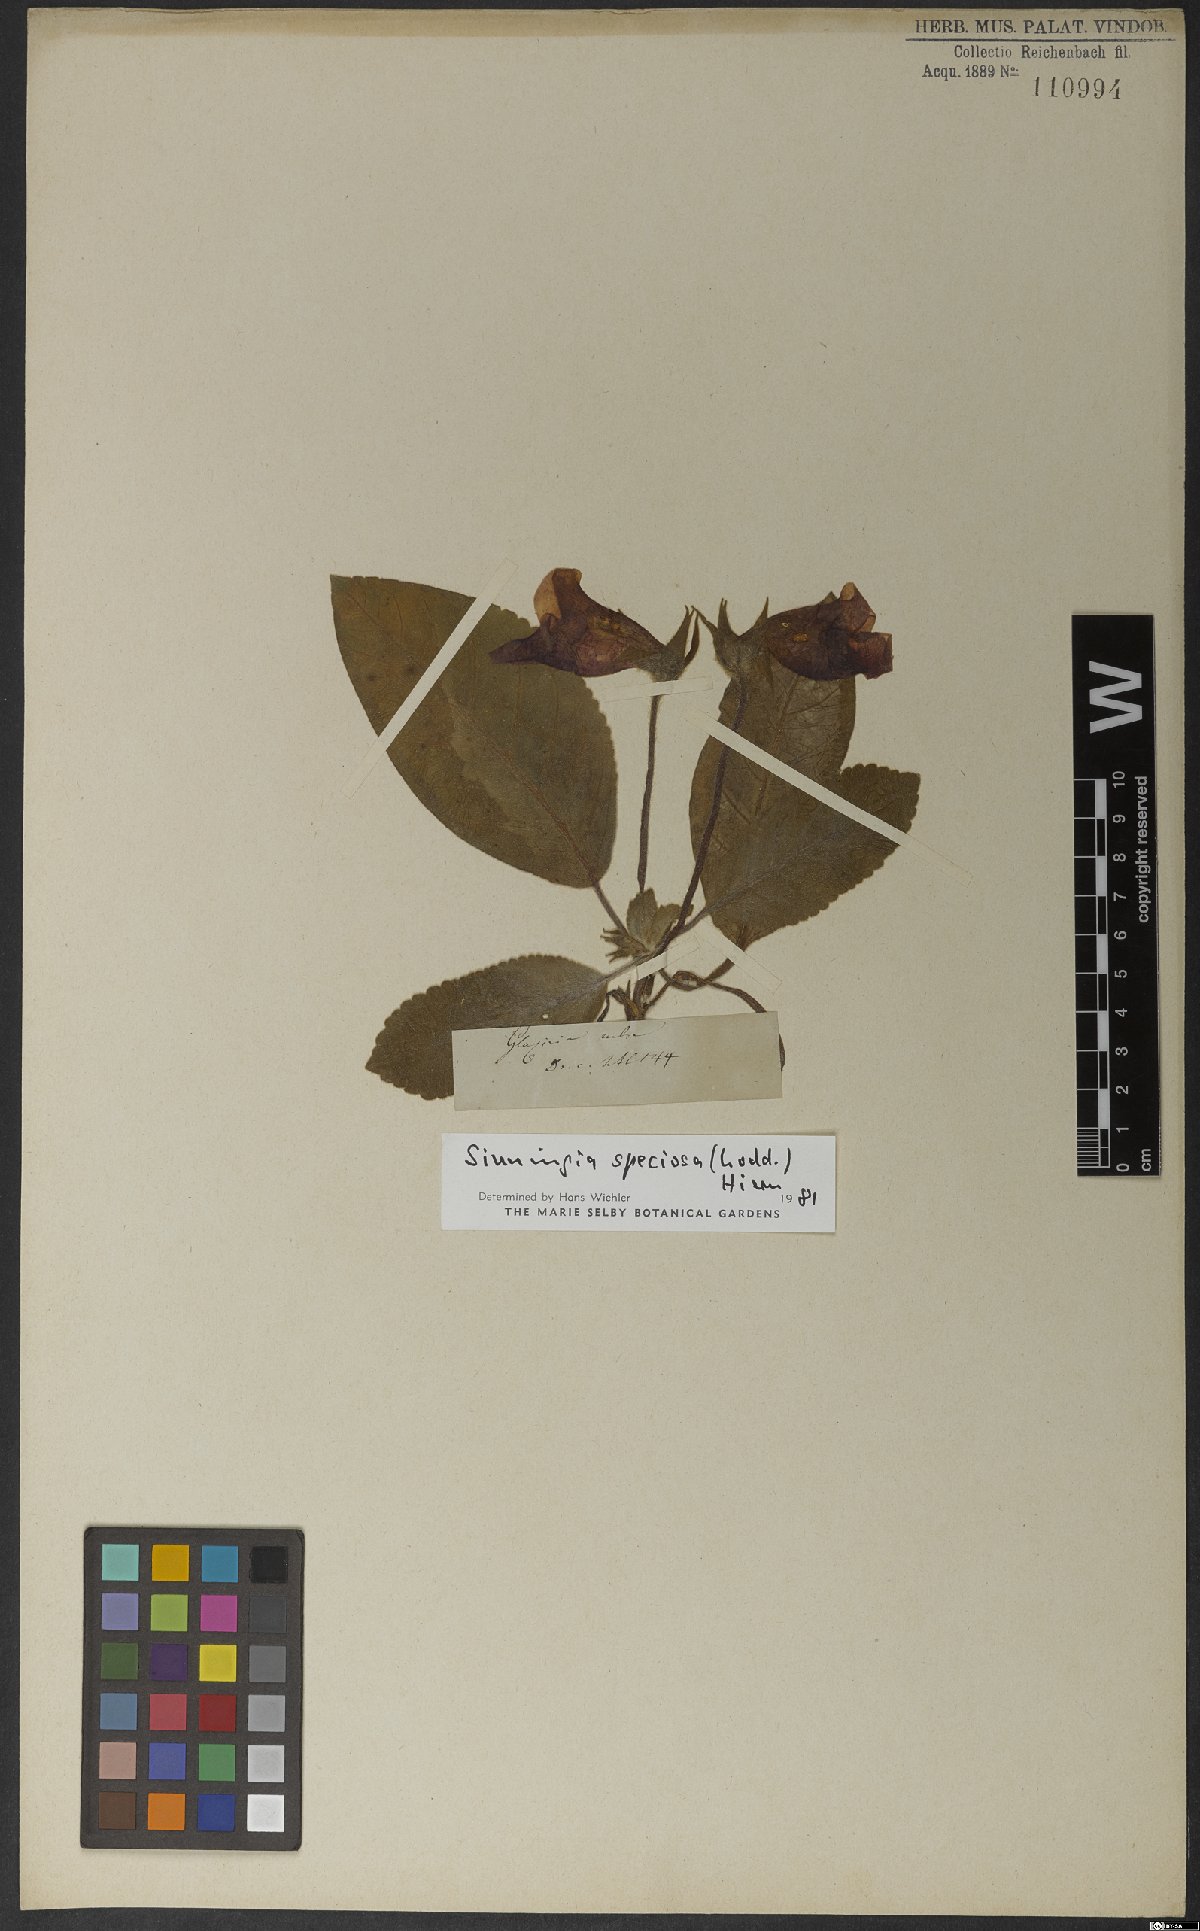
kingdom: Plantae
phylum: Tracheophyta
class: Magnoliopsida
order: Lamiales
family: Gesneriaceae
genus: Sinningia
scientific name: Sinningia speciosa
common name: Brazilian gloxinia
